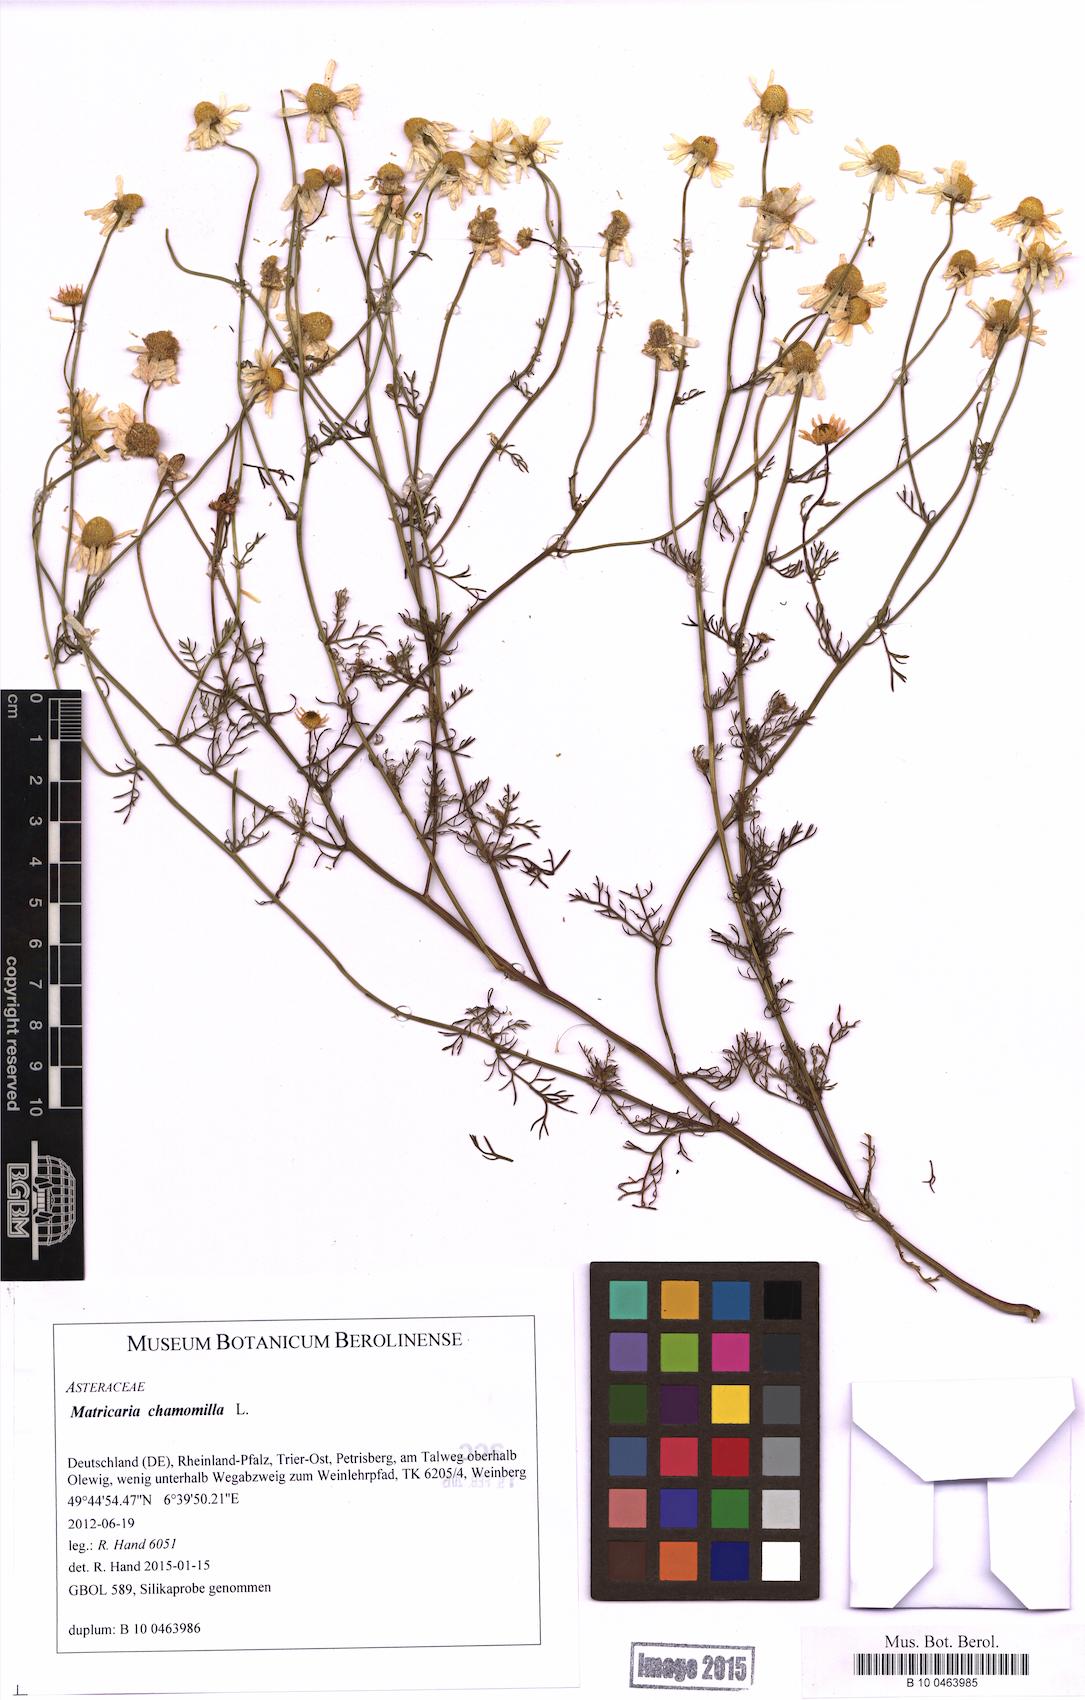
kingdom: Plantae
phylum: Tracheophyta
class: Magnoliopsida
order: Asterales
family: Asteraceae
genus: Matricaria
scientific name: Matricaria chamomilla
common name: Scented mayweed
